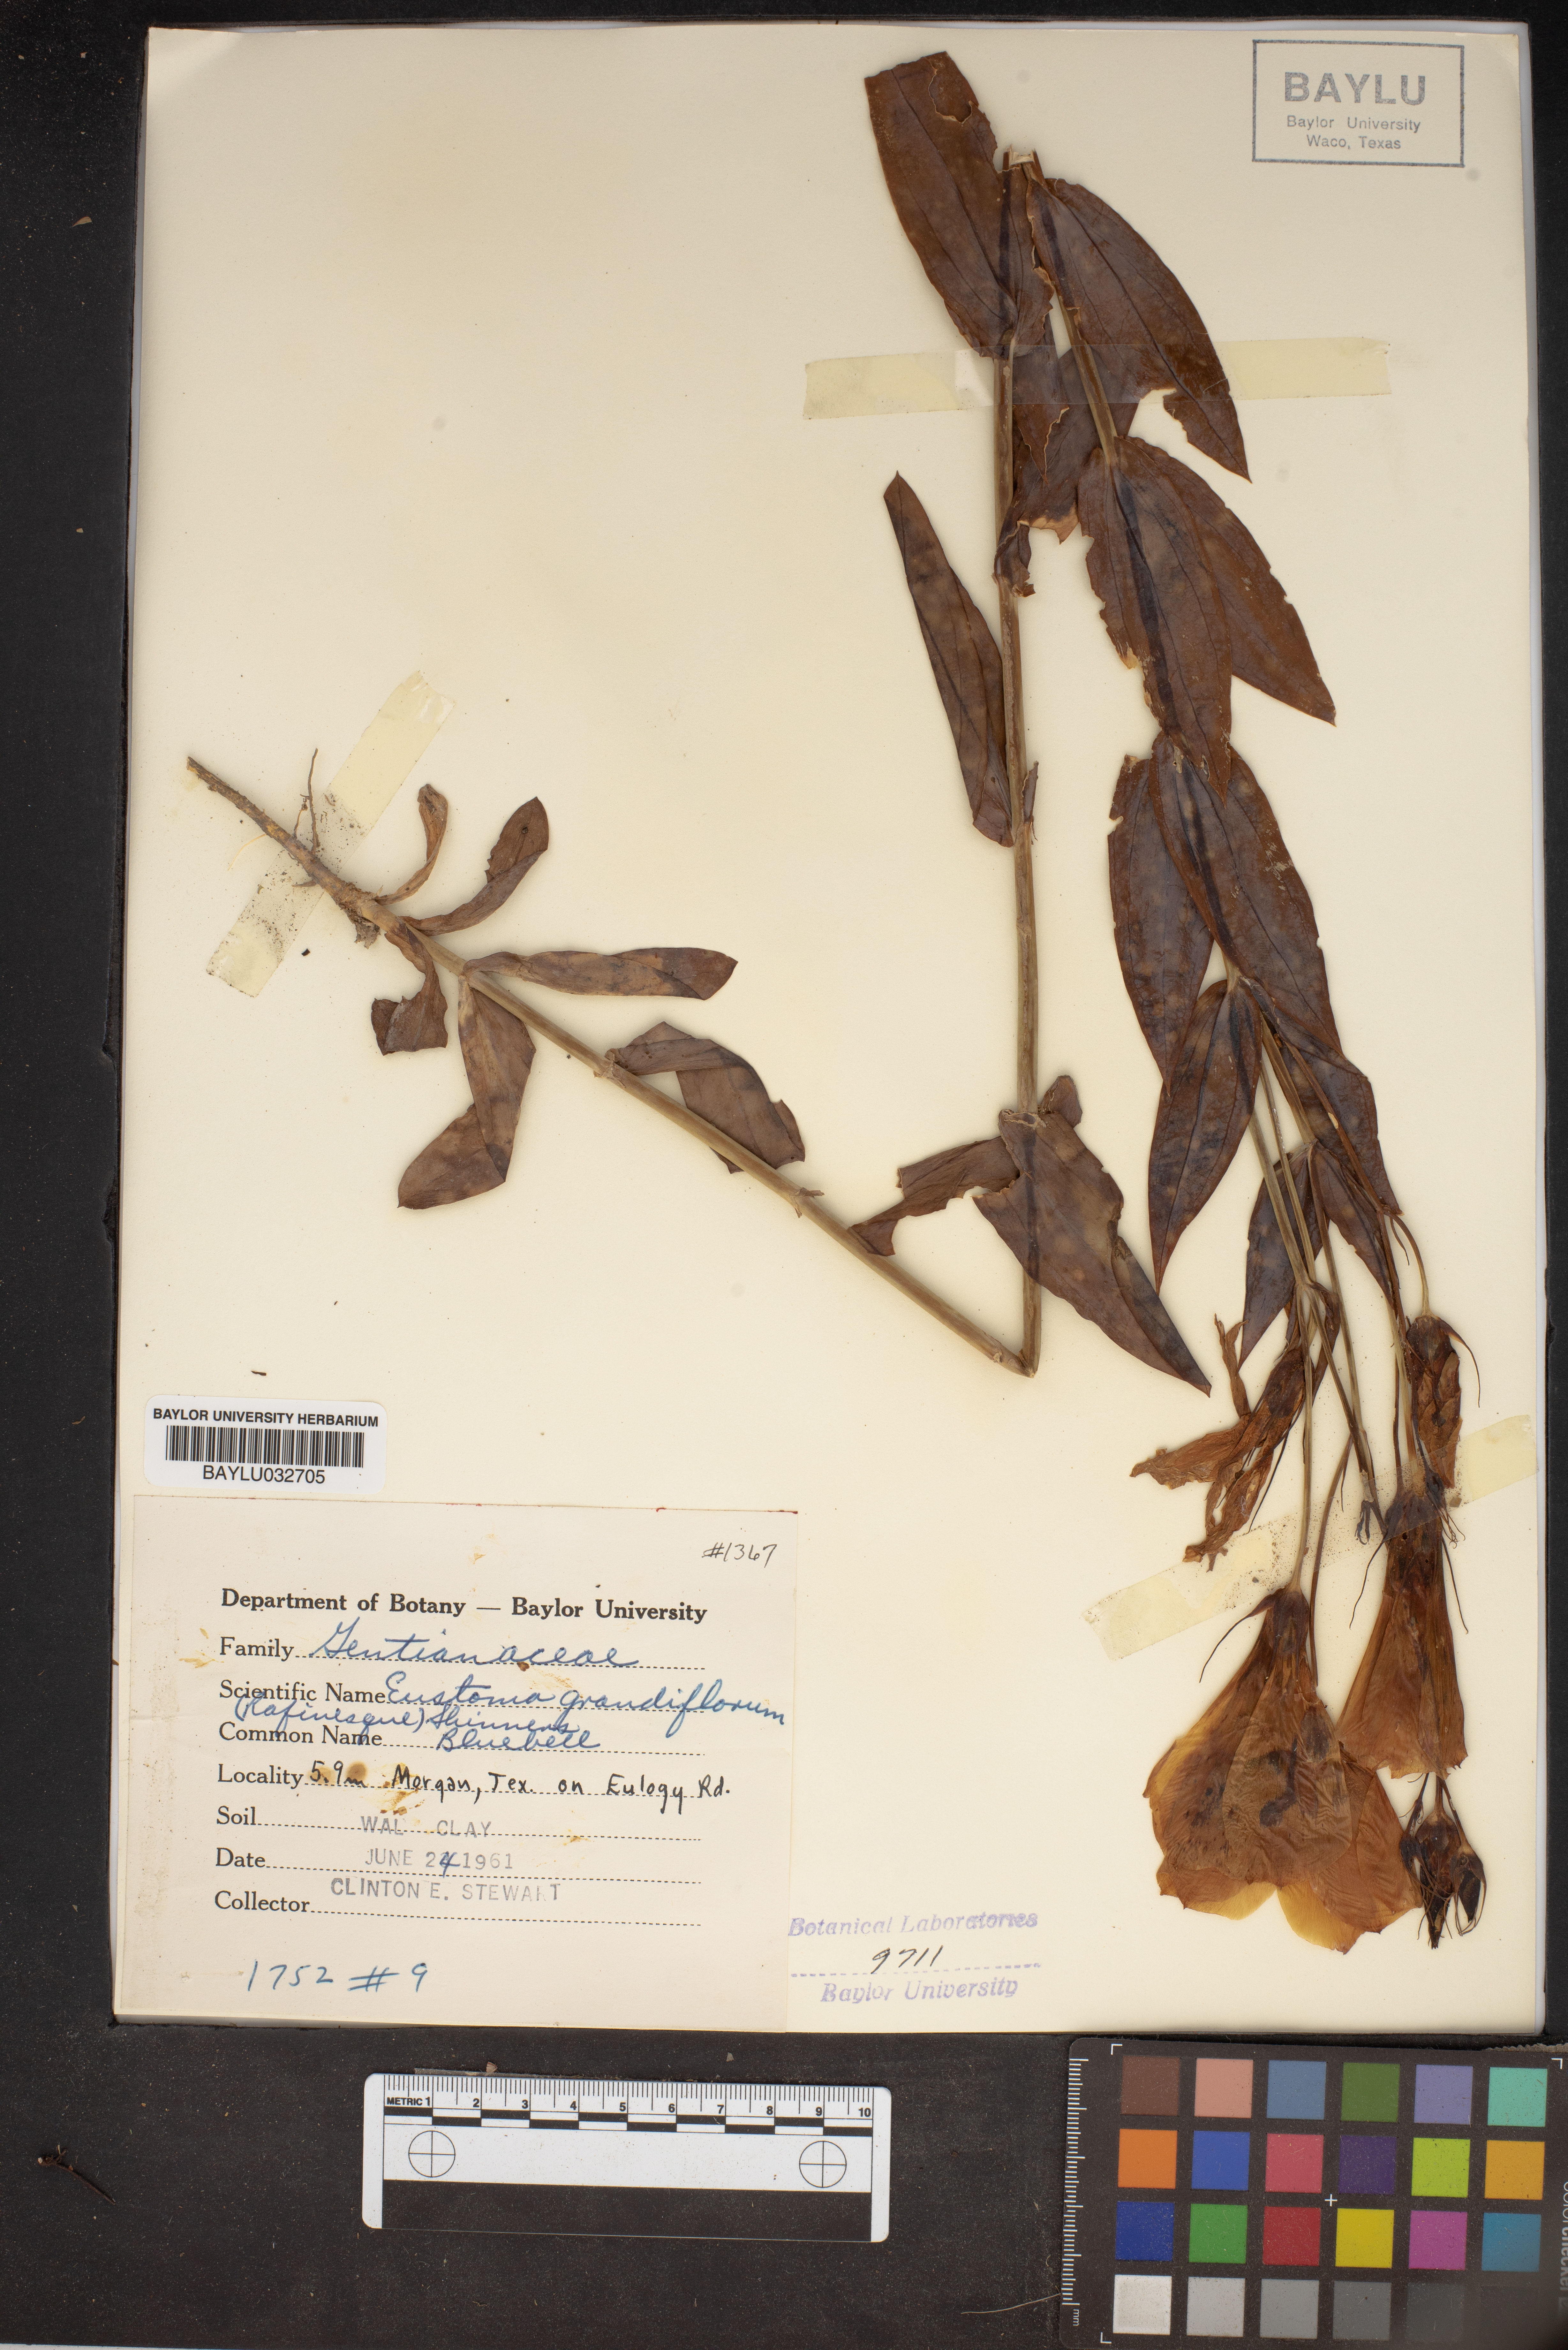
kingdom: Plantae
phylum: Tracheophyta
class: Magnoliopsida
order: Gentianales
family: Gentianaceae
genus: Eustoma
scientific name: Eustoma russellianum
